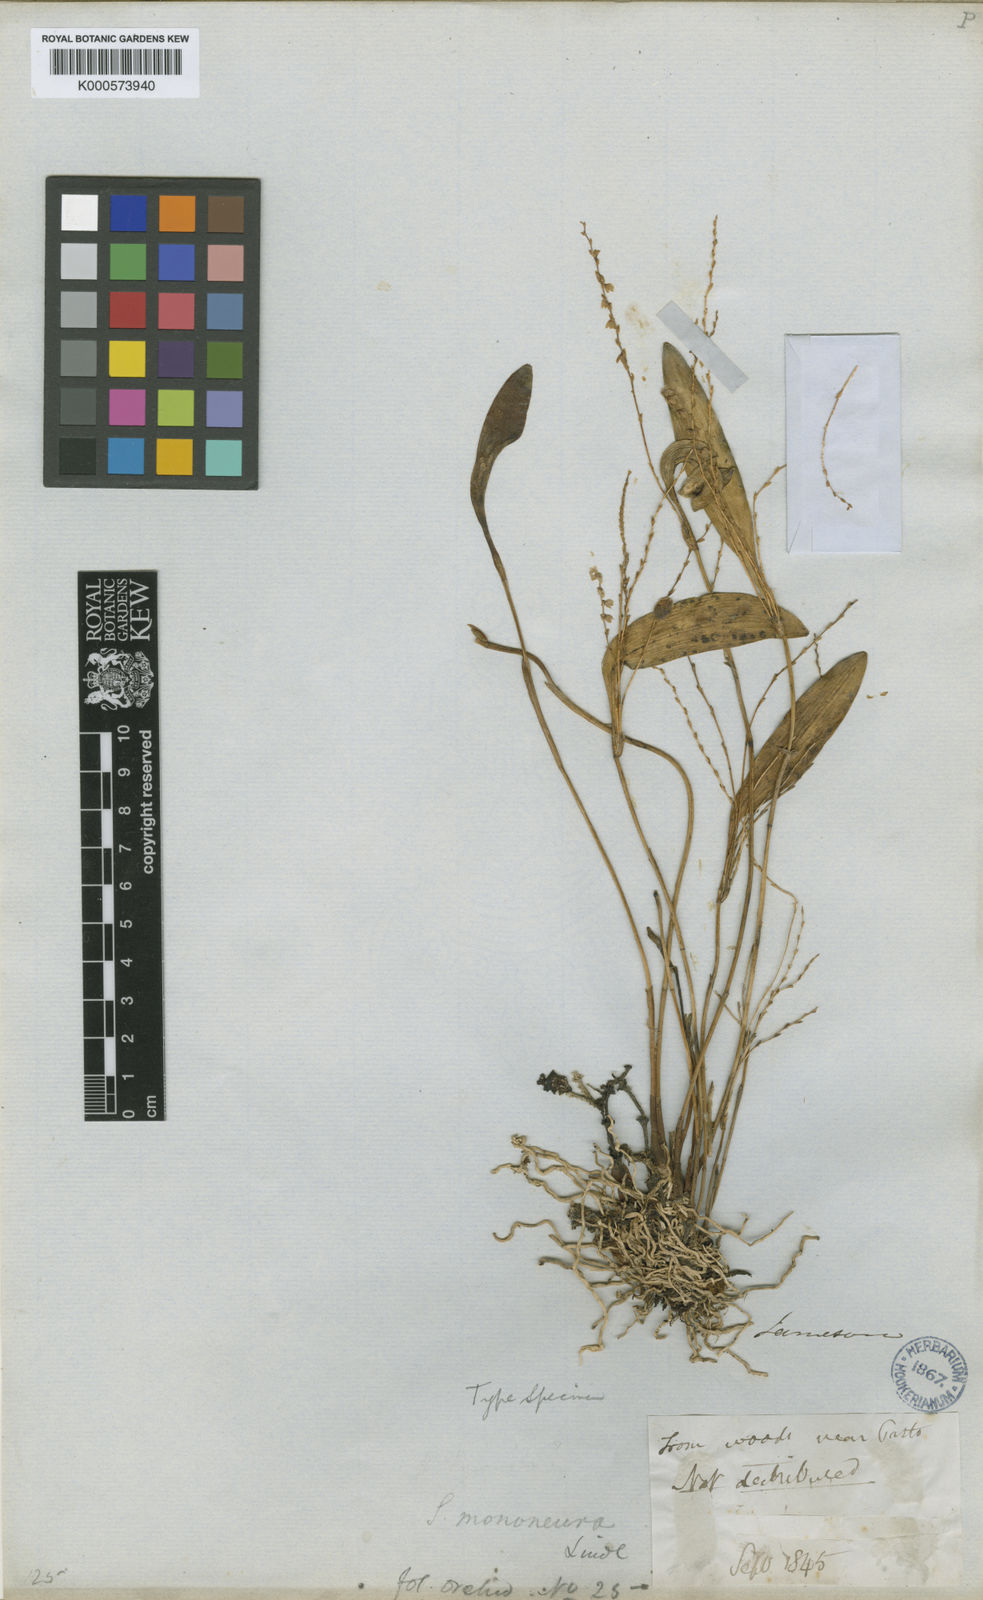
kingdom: Plantae
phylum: Tracheophyta
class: Liliopsida
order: Asparagales
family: Orchidaceae
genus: Stelis
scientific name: Stelis euspatha
